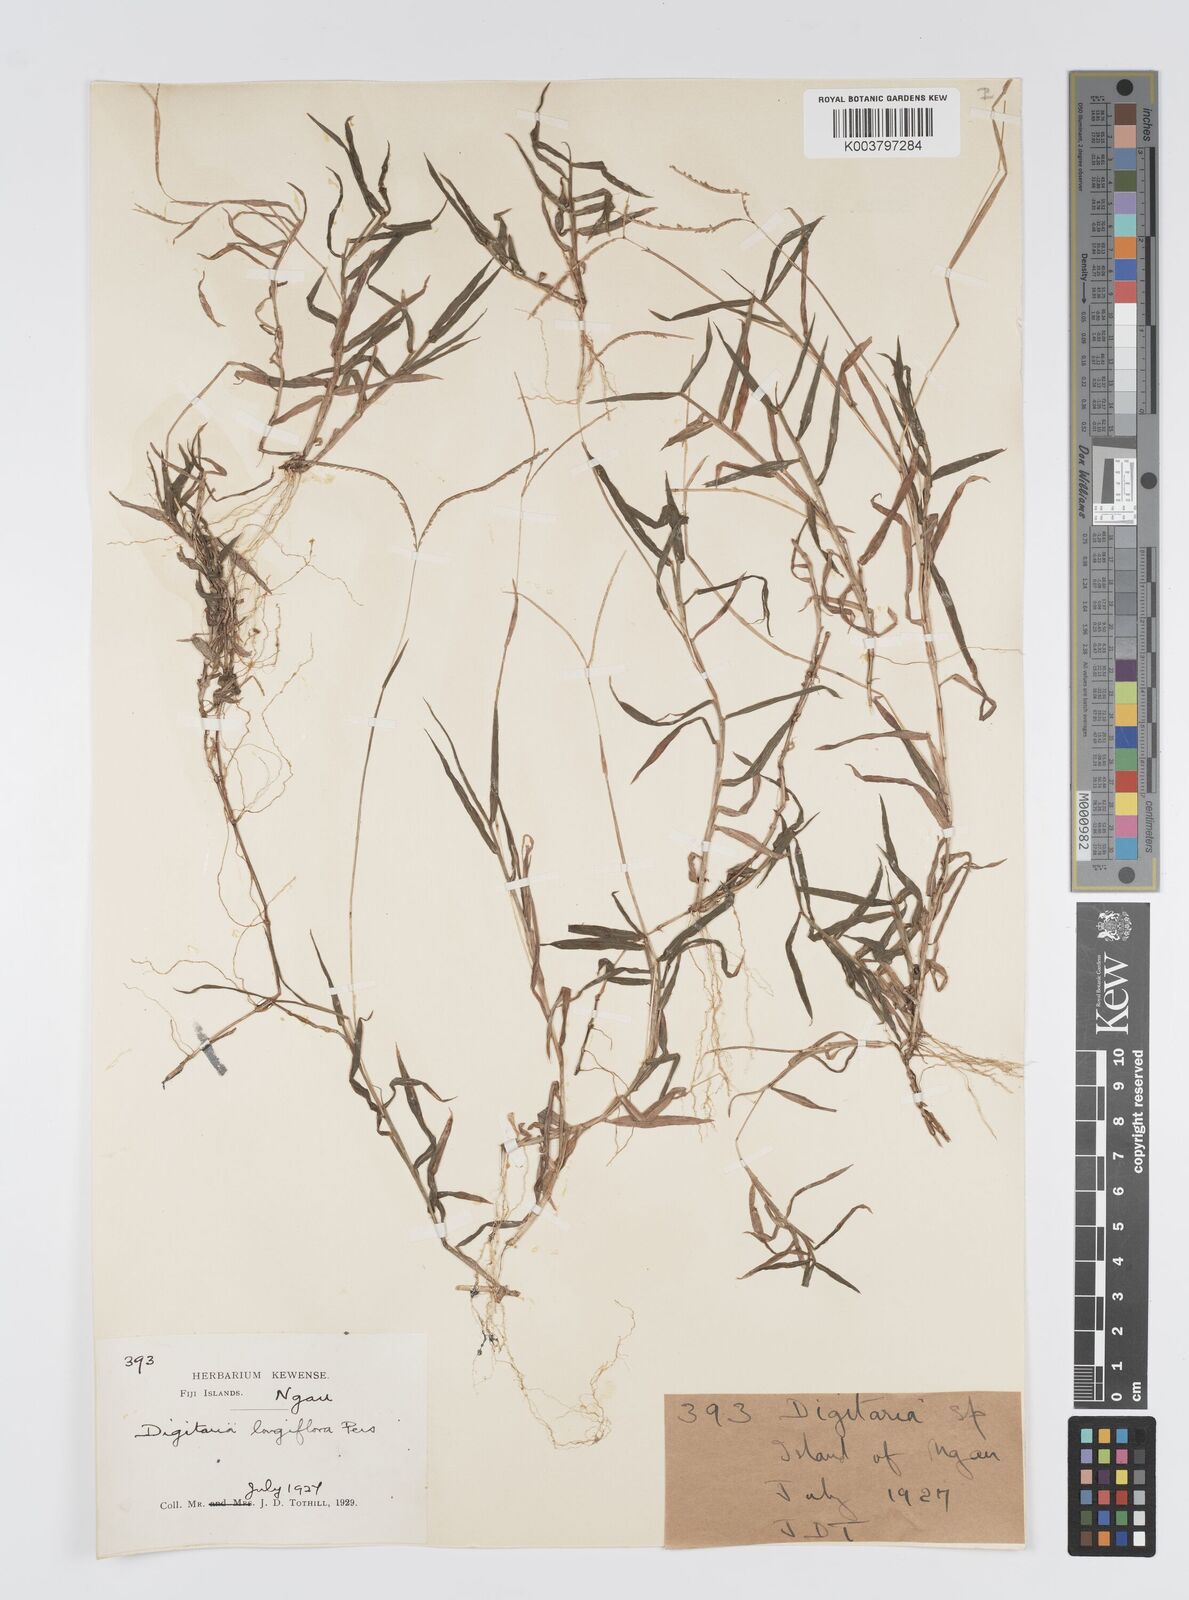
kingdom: Plantae
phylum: Tracheophyta
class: Liliopsida
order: Poales
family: Poaceae
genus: Digitaria
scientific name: Digitaria fuscescens
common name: Yellow crabgrass
